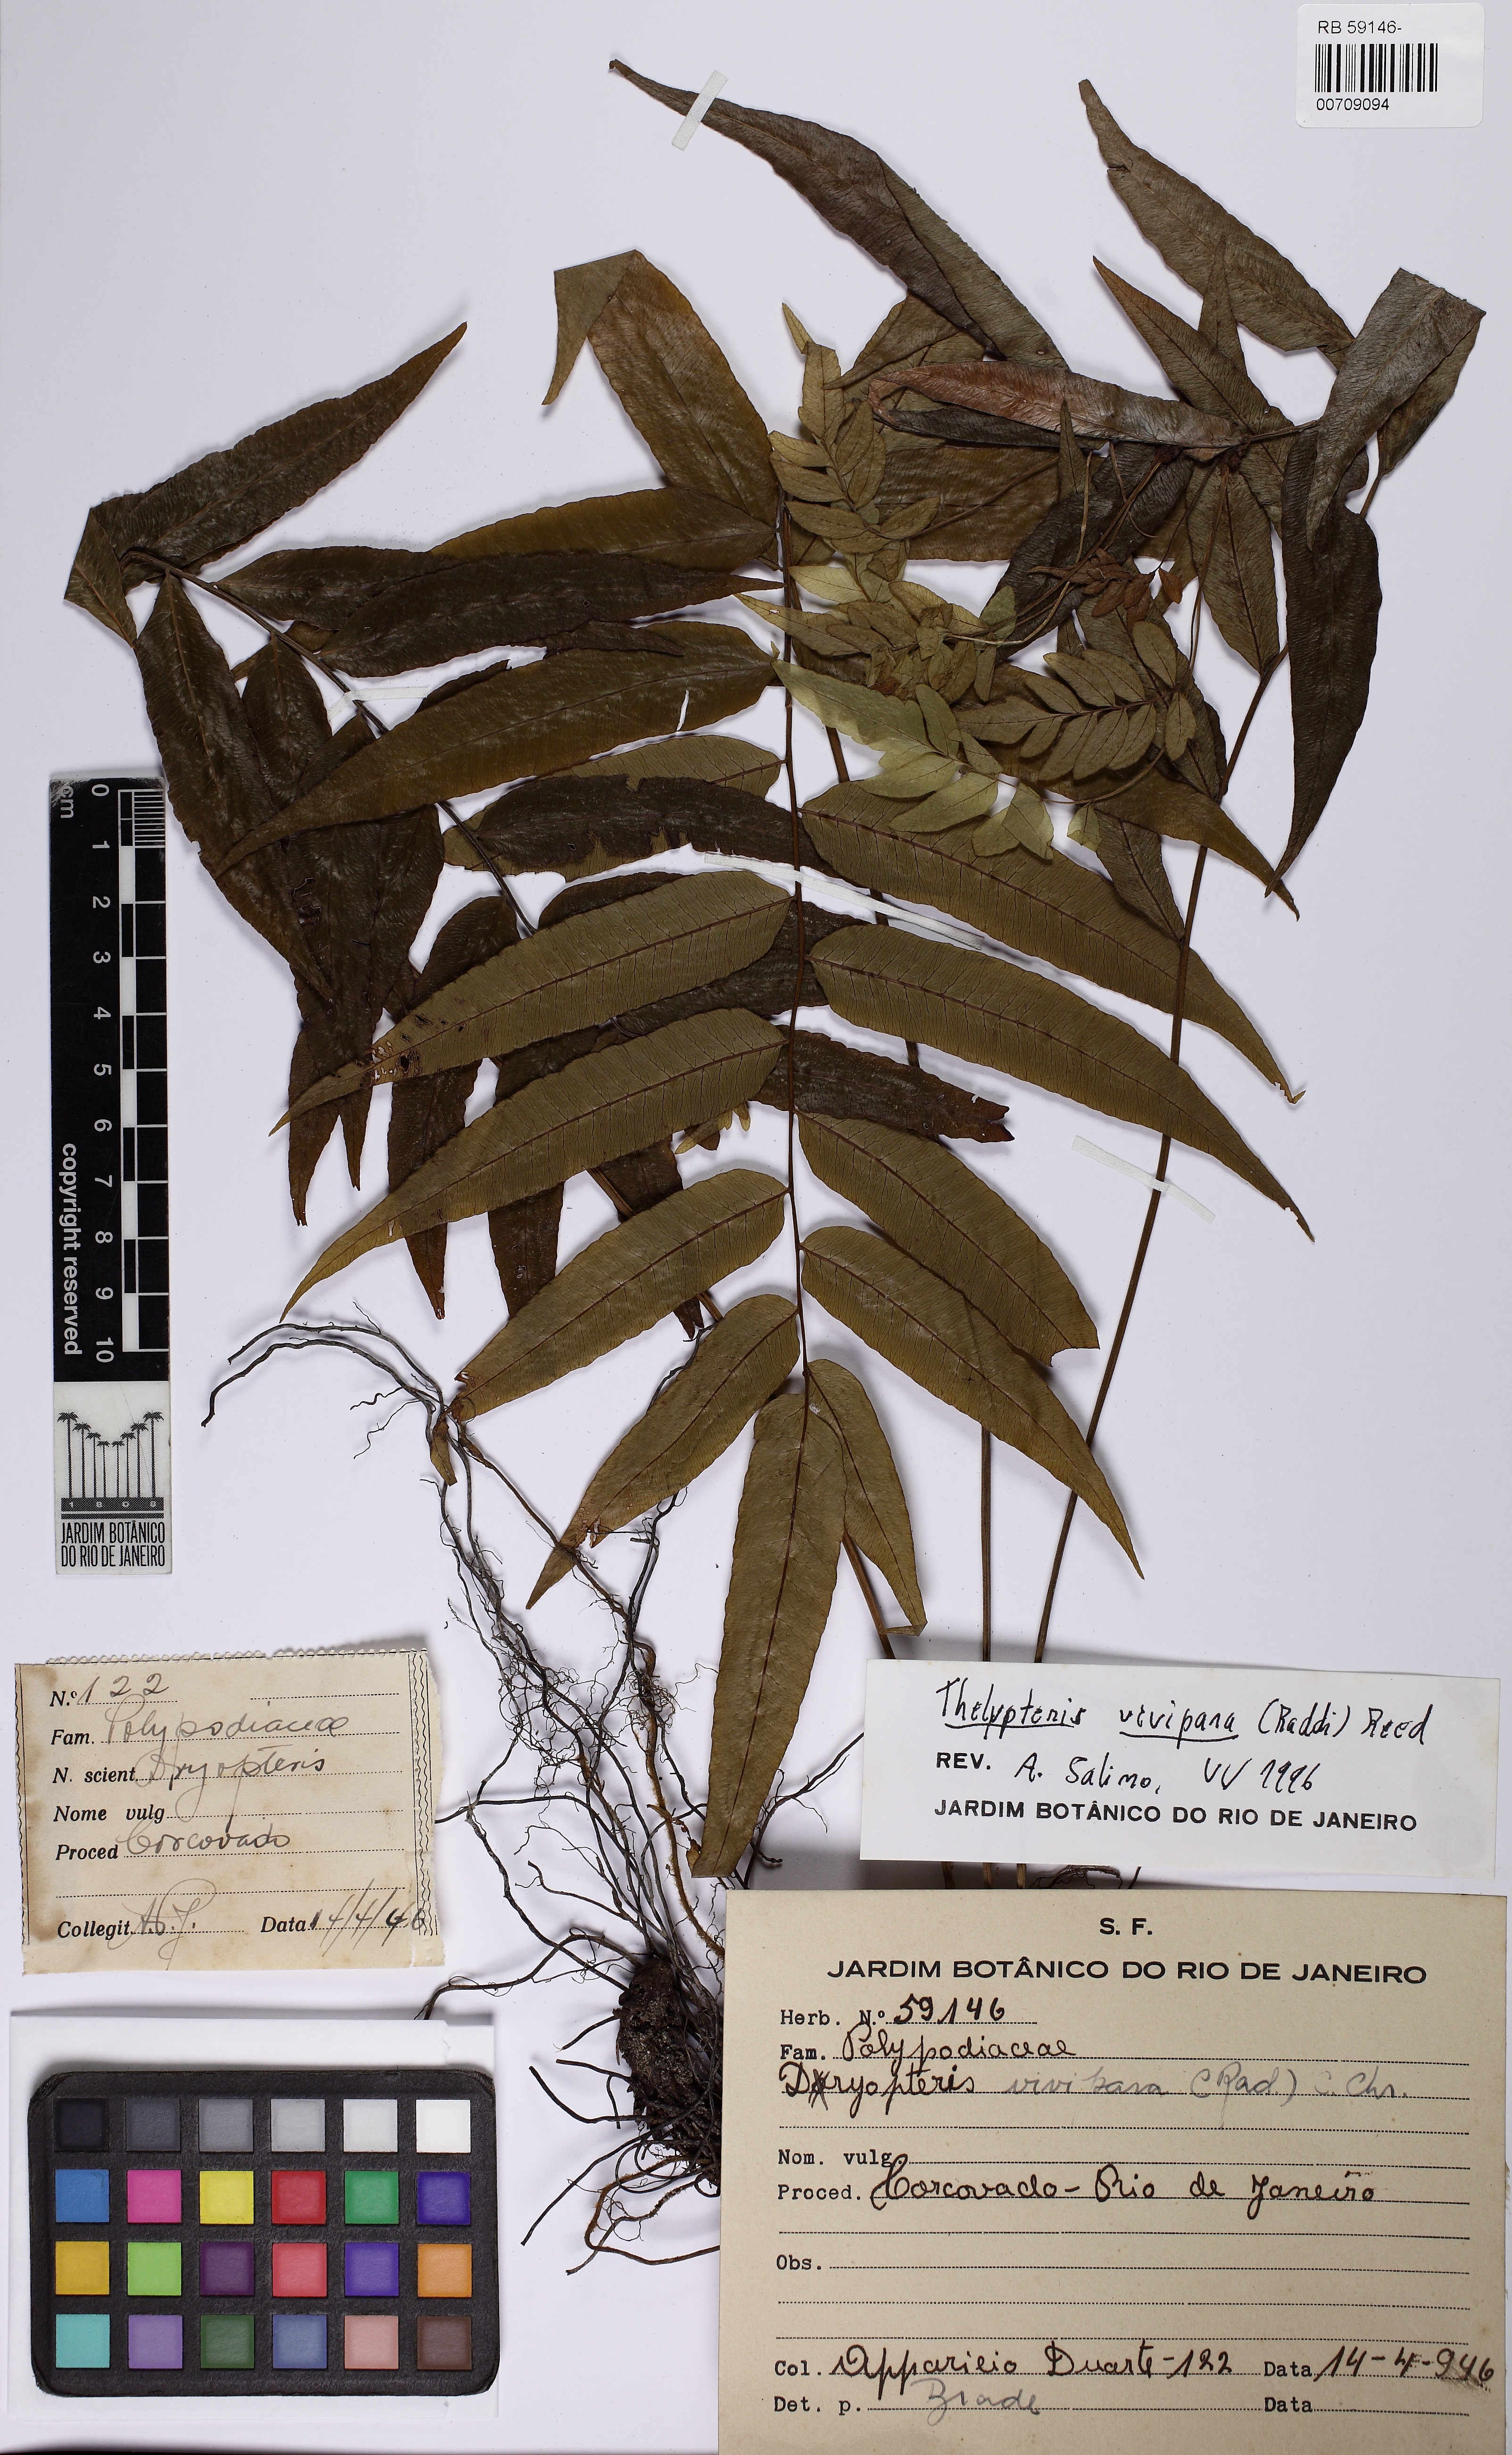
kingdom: Plantae
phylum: Tracheophyta
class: Polypodiopsida
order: Polypodiales
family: Thelypteridaceae
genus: Goniopteris
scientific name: Goniopteris vivipara
